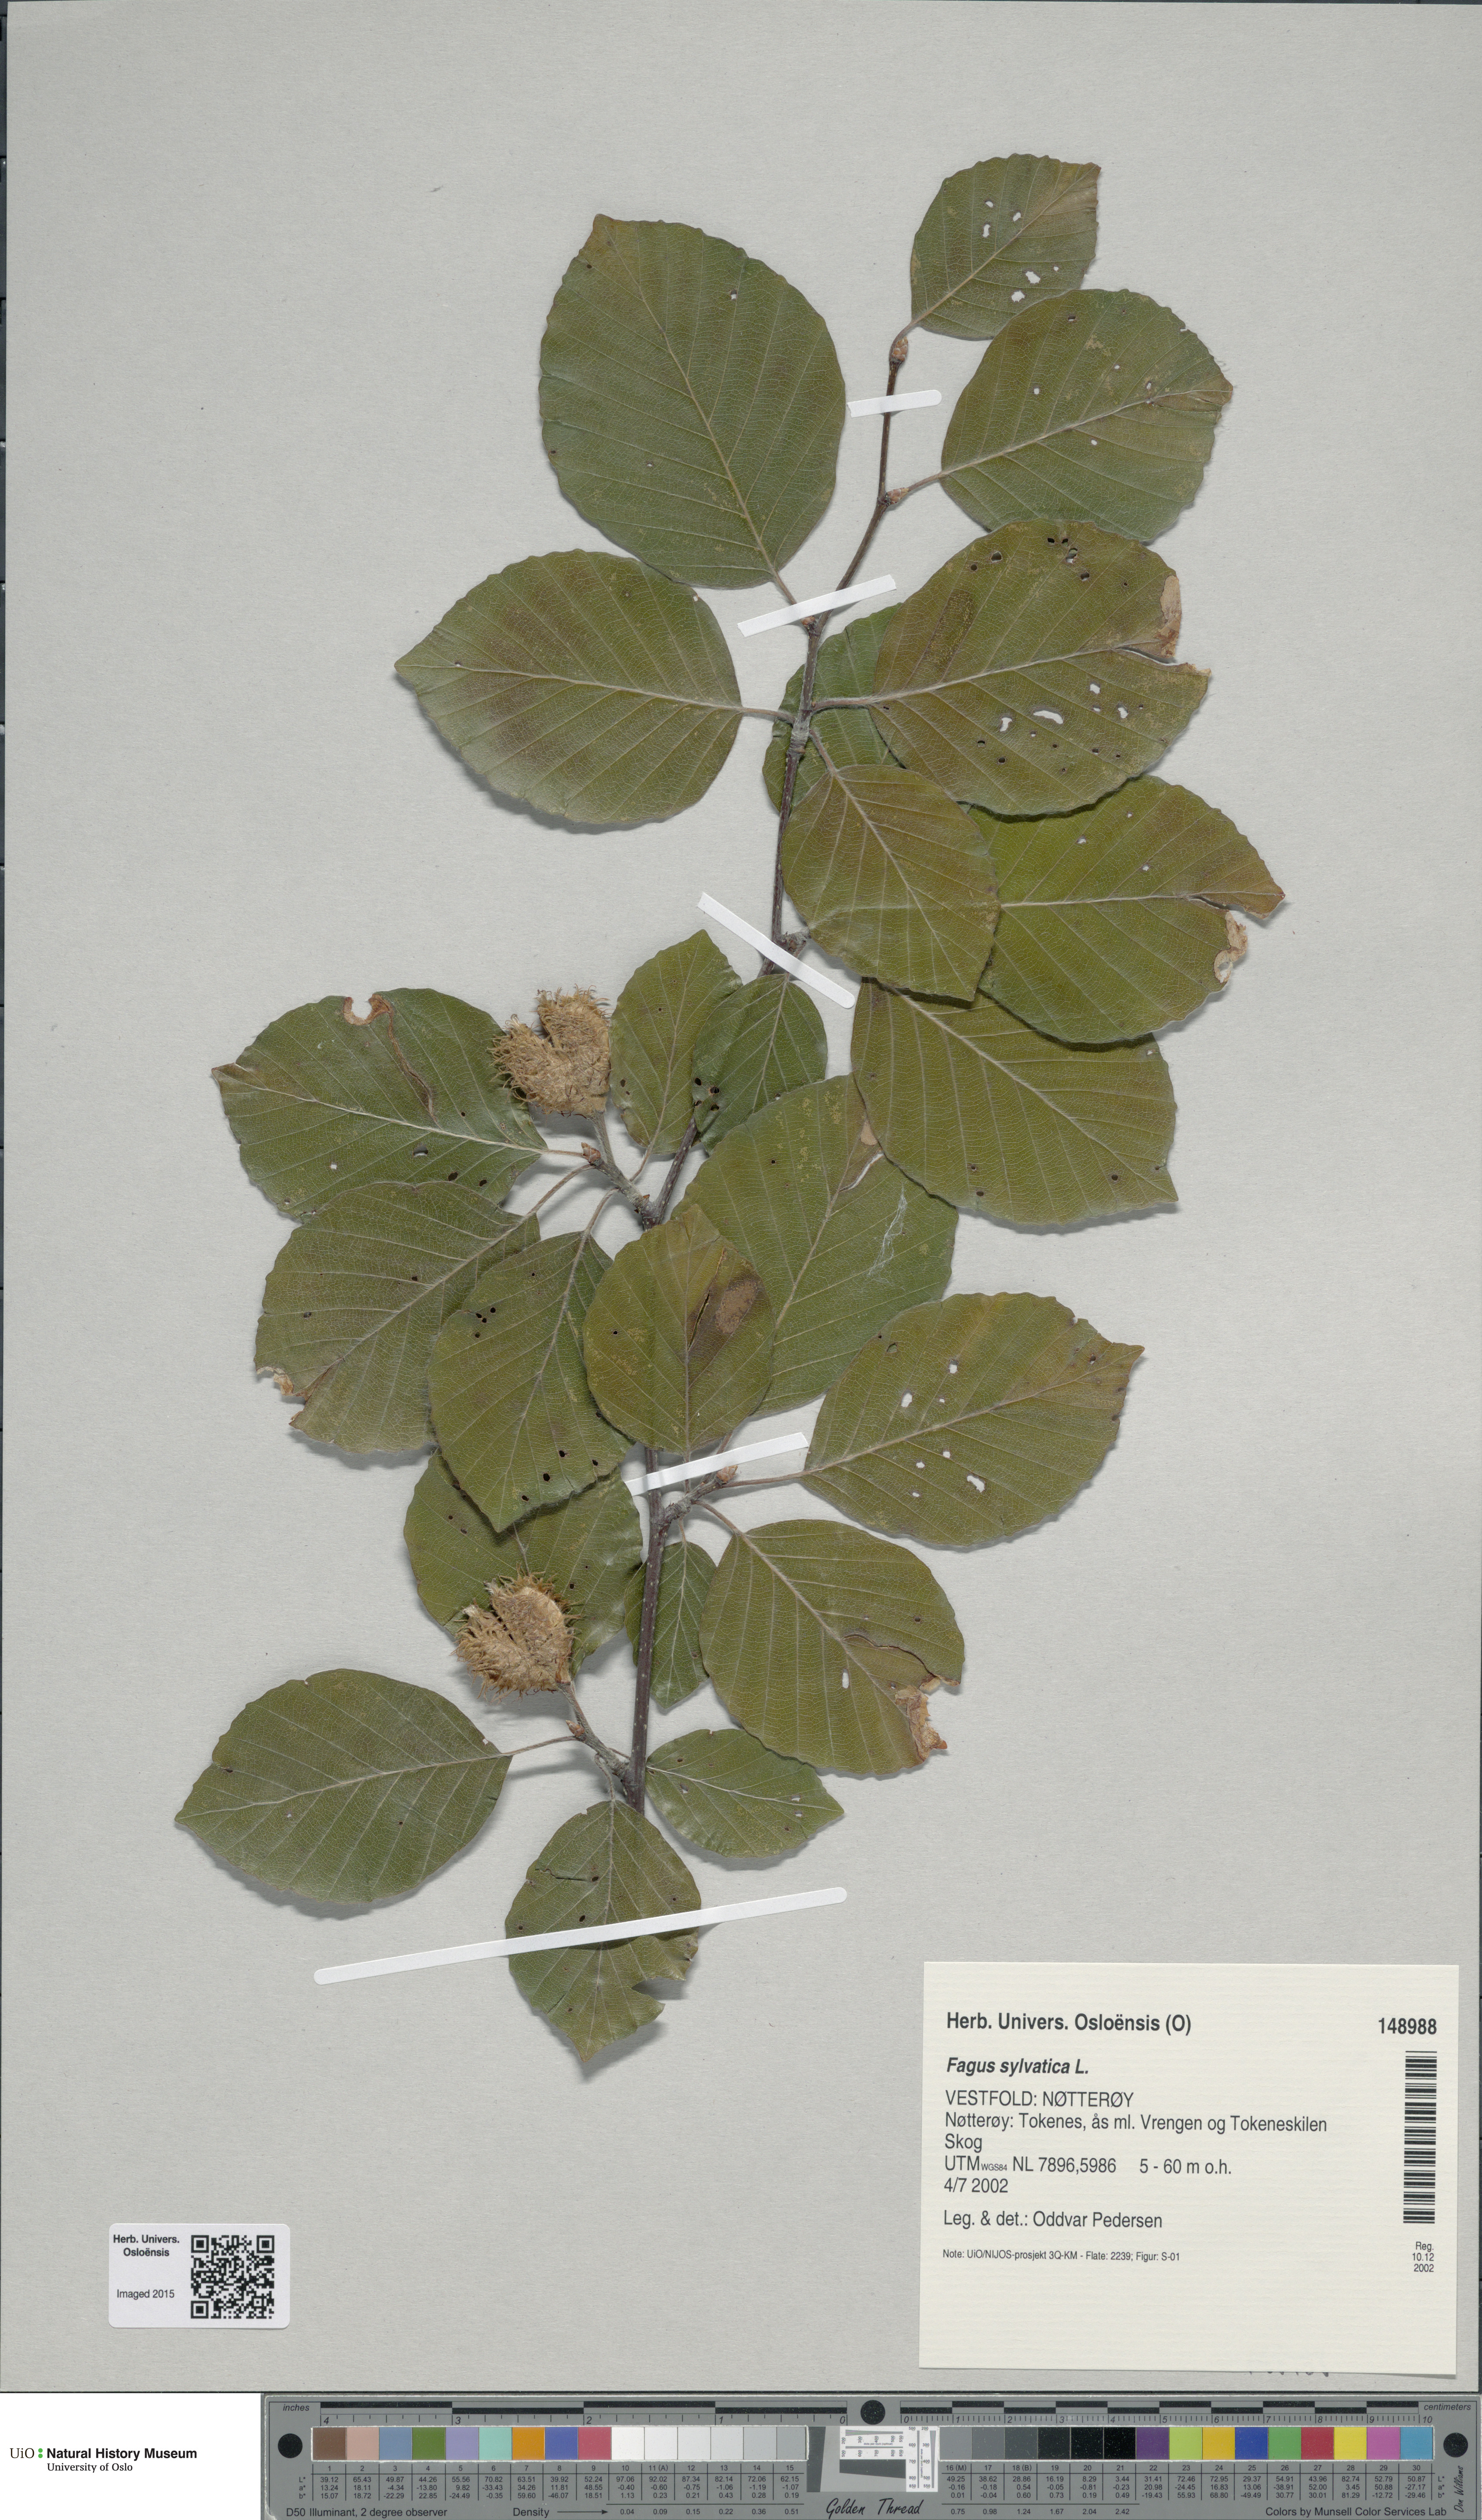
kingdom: Plantae
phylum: Tracheophyta
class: Magnoliopsida
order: Fagales
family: Fagaceae
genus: Fagus
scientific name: Fagus sylvatica
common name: Beech
